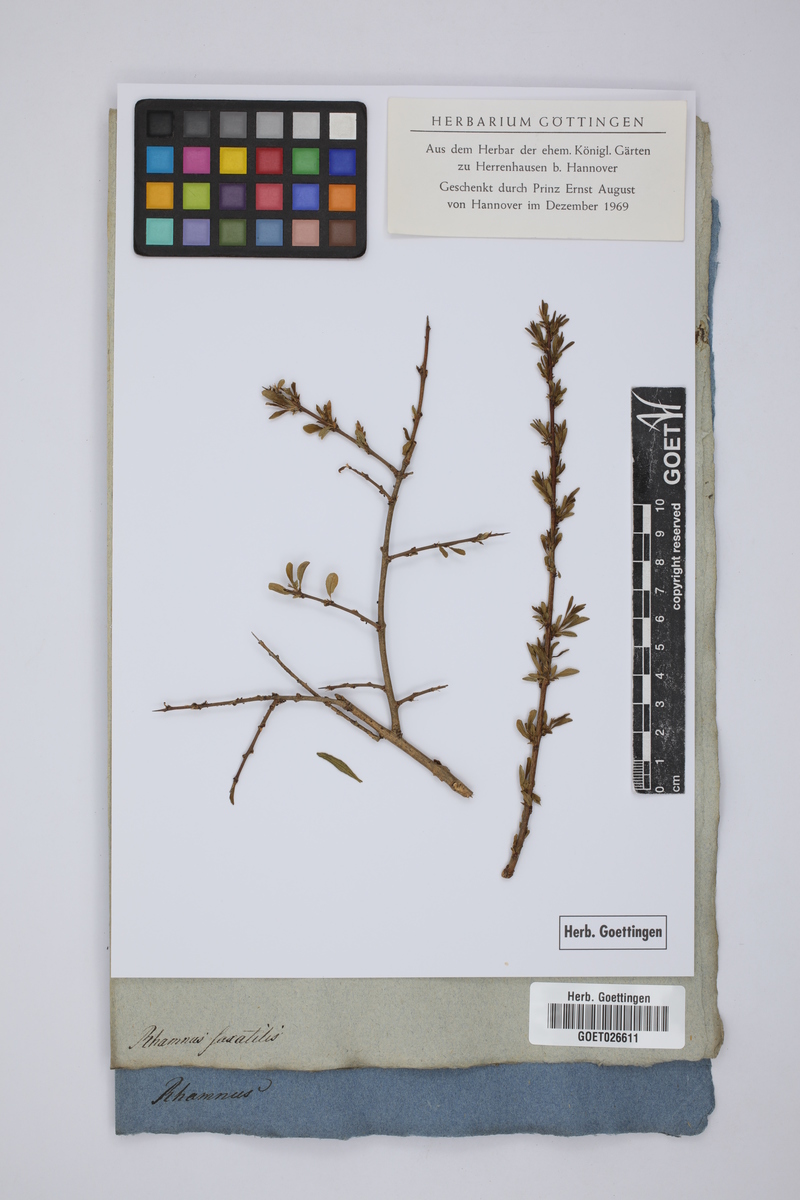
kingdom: Plantae
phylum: Tracheophyta
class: Magnoliopsida
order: Rosales
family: Rhamnaceae
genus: Rhamnus
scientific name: Rhamnus saxatilis
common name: Rock buckthorn
